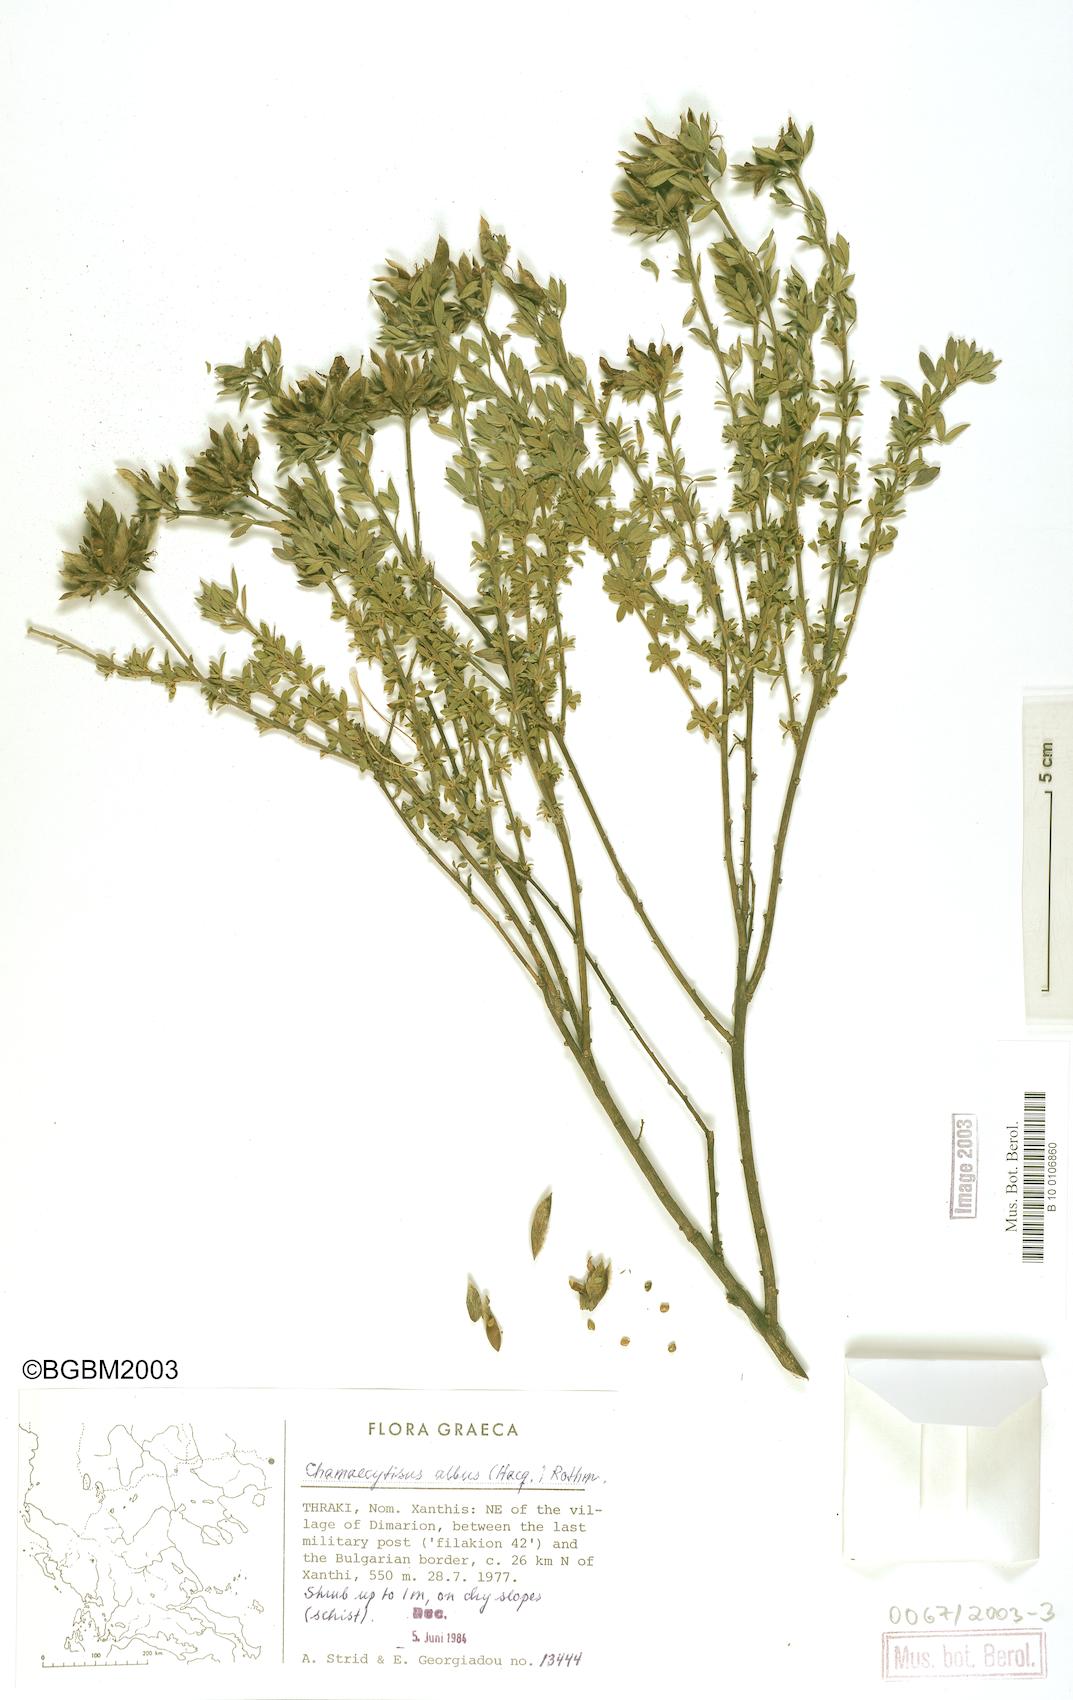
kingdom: Plantae
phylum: Tracheophyta
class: Magnoliopsida
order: Fabales
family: Fabaceae
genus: Chamaecytisus
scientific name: Chamaecytisus albus
